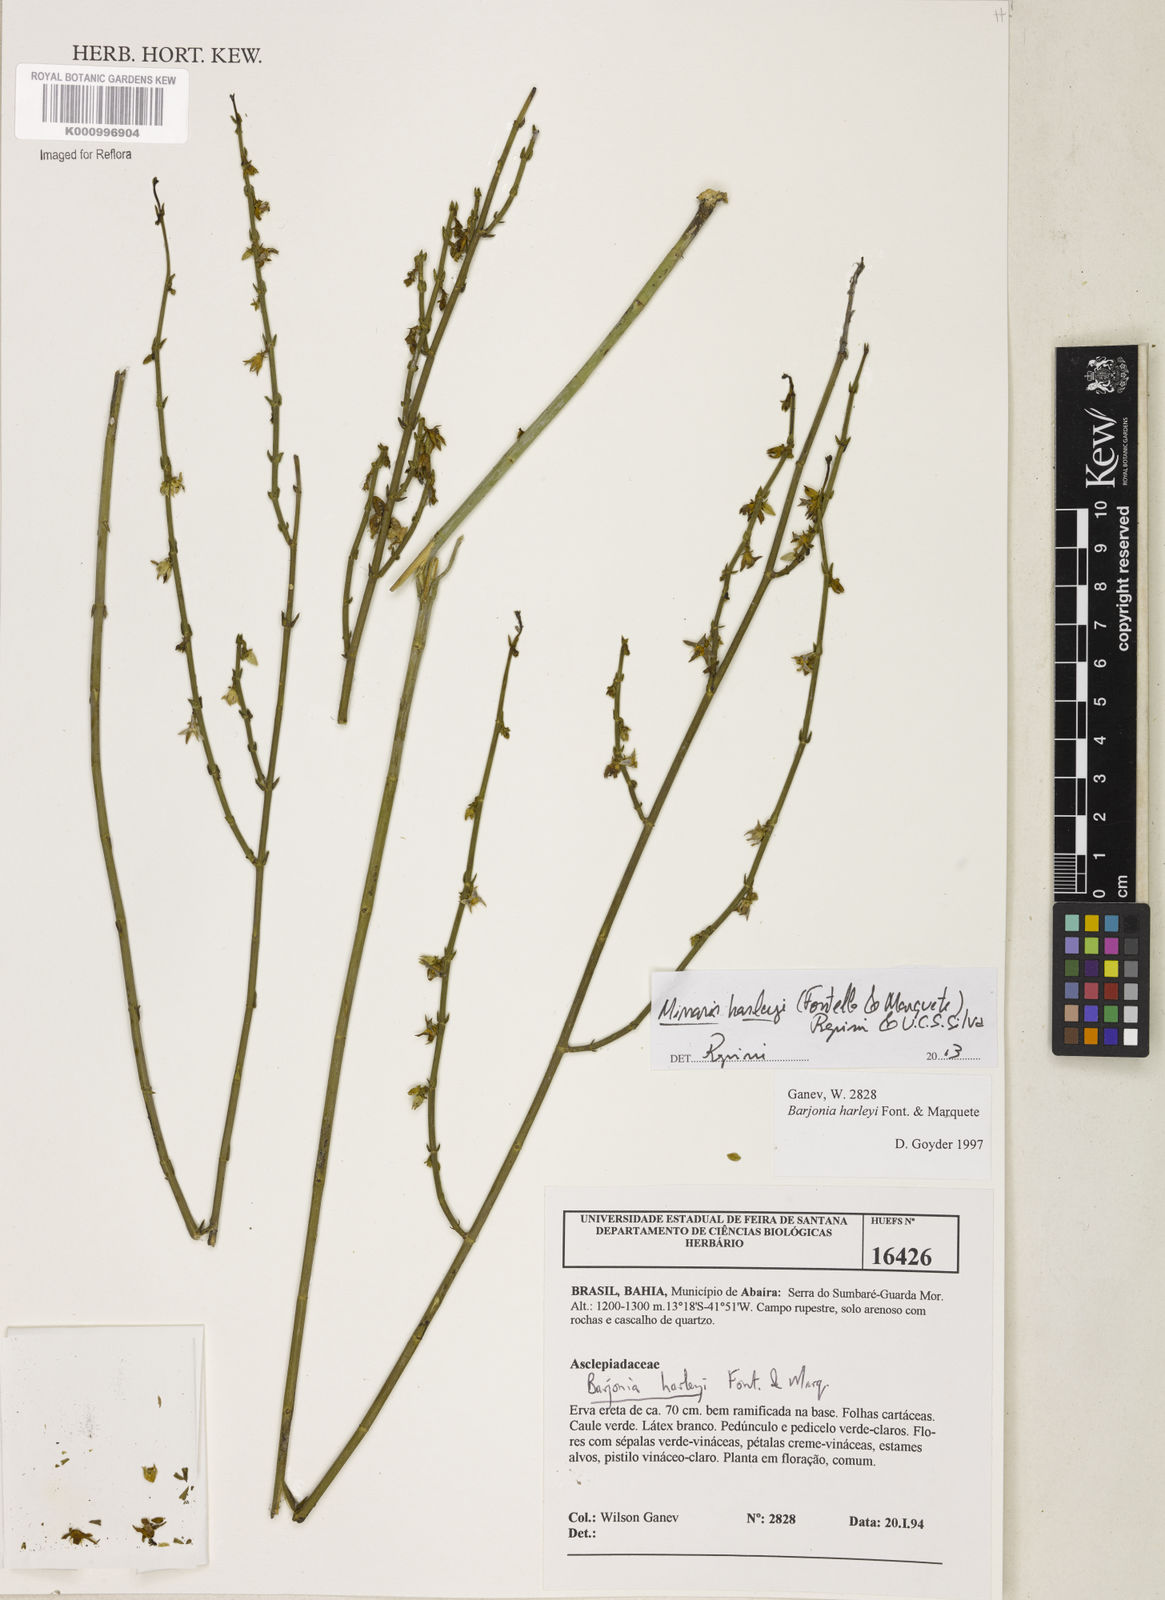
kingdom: Plantae
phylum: Tracheophyta
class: Magnoliopsida
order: Gentianales
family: Apocynaceae
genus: Minaria
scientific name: Minaria cordata
